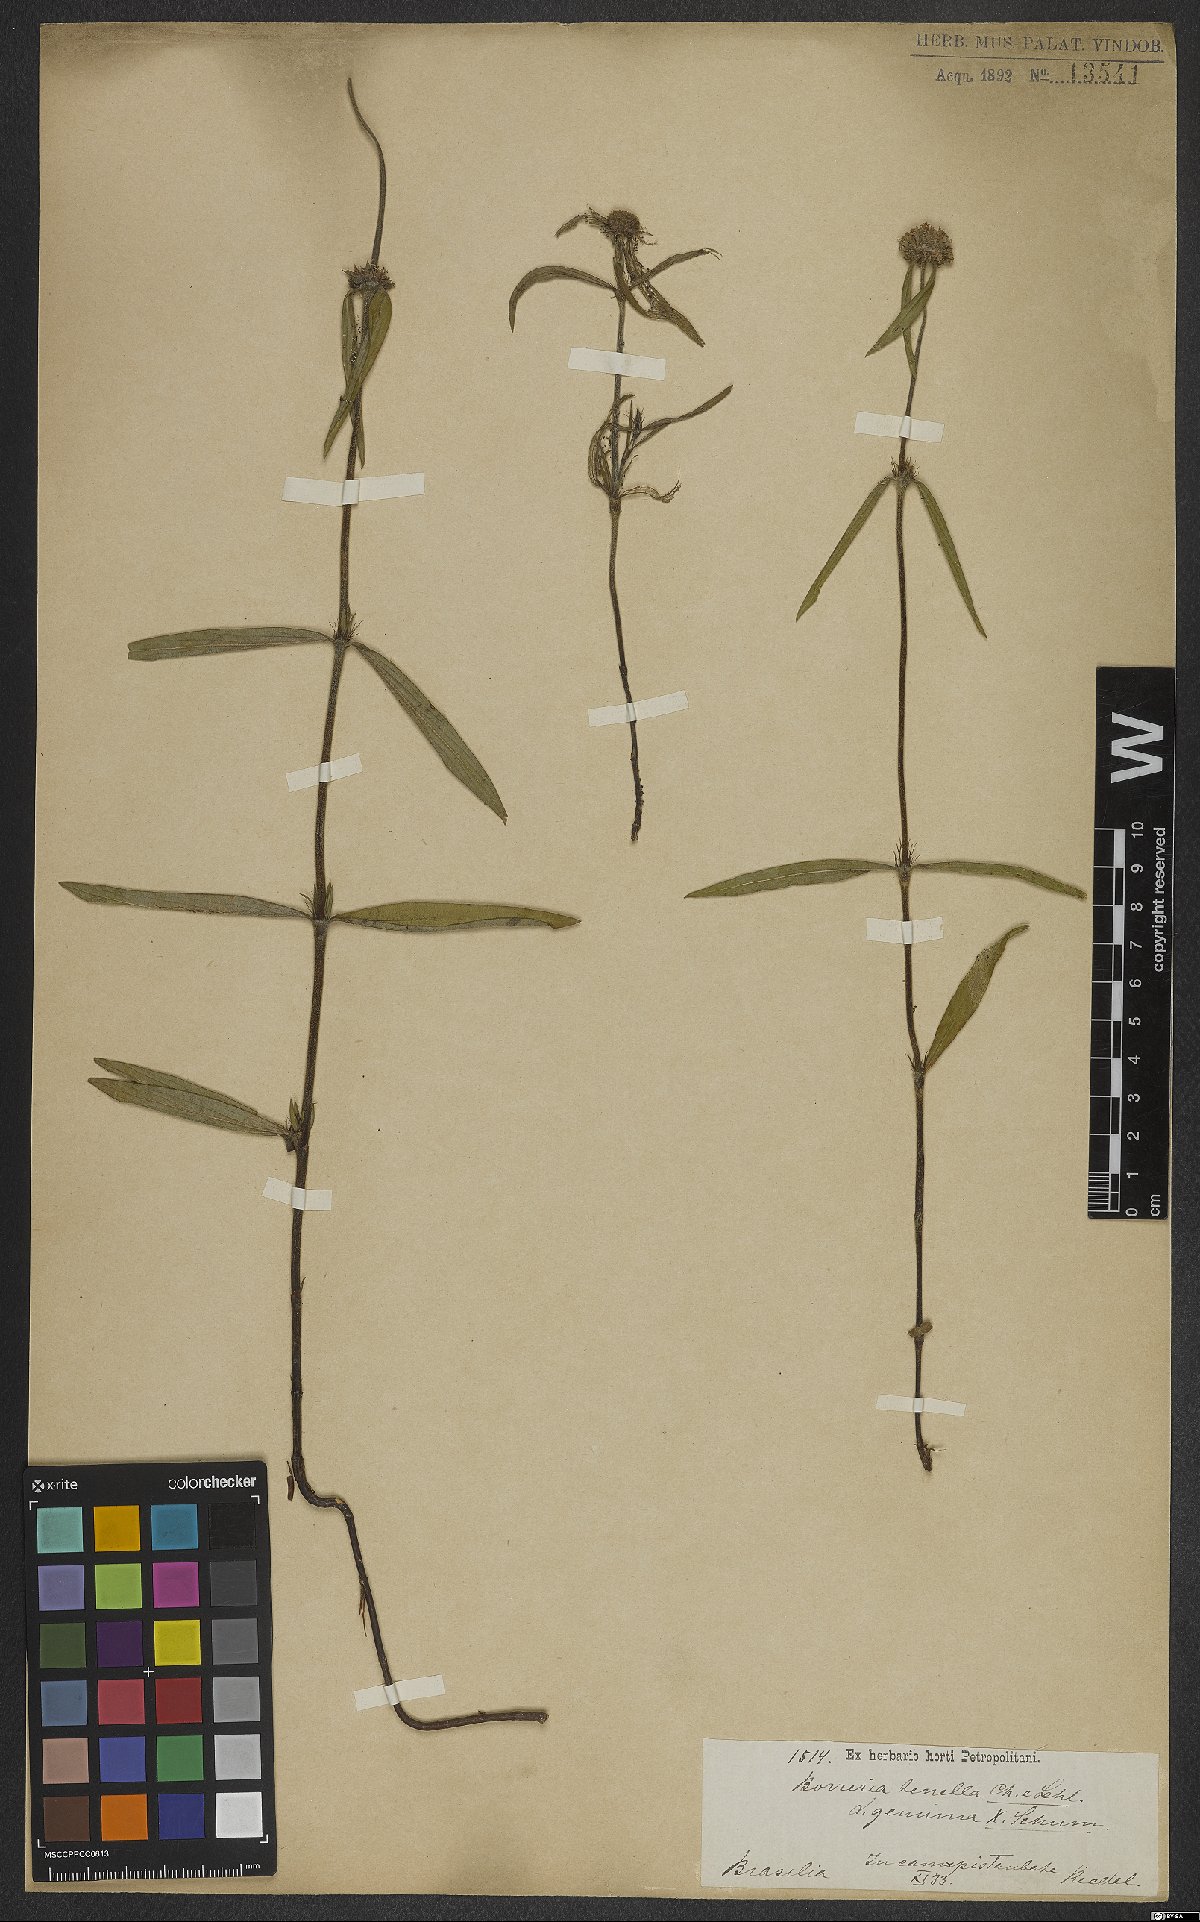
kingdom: Plantae
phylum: Tracheophyta
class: Magnoliopsida
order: Gentianales
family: Rubiaceae
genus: Spermacoce
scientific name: Spermacoce orinocensis
